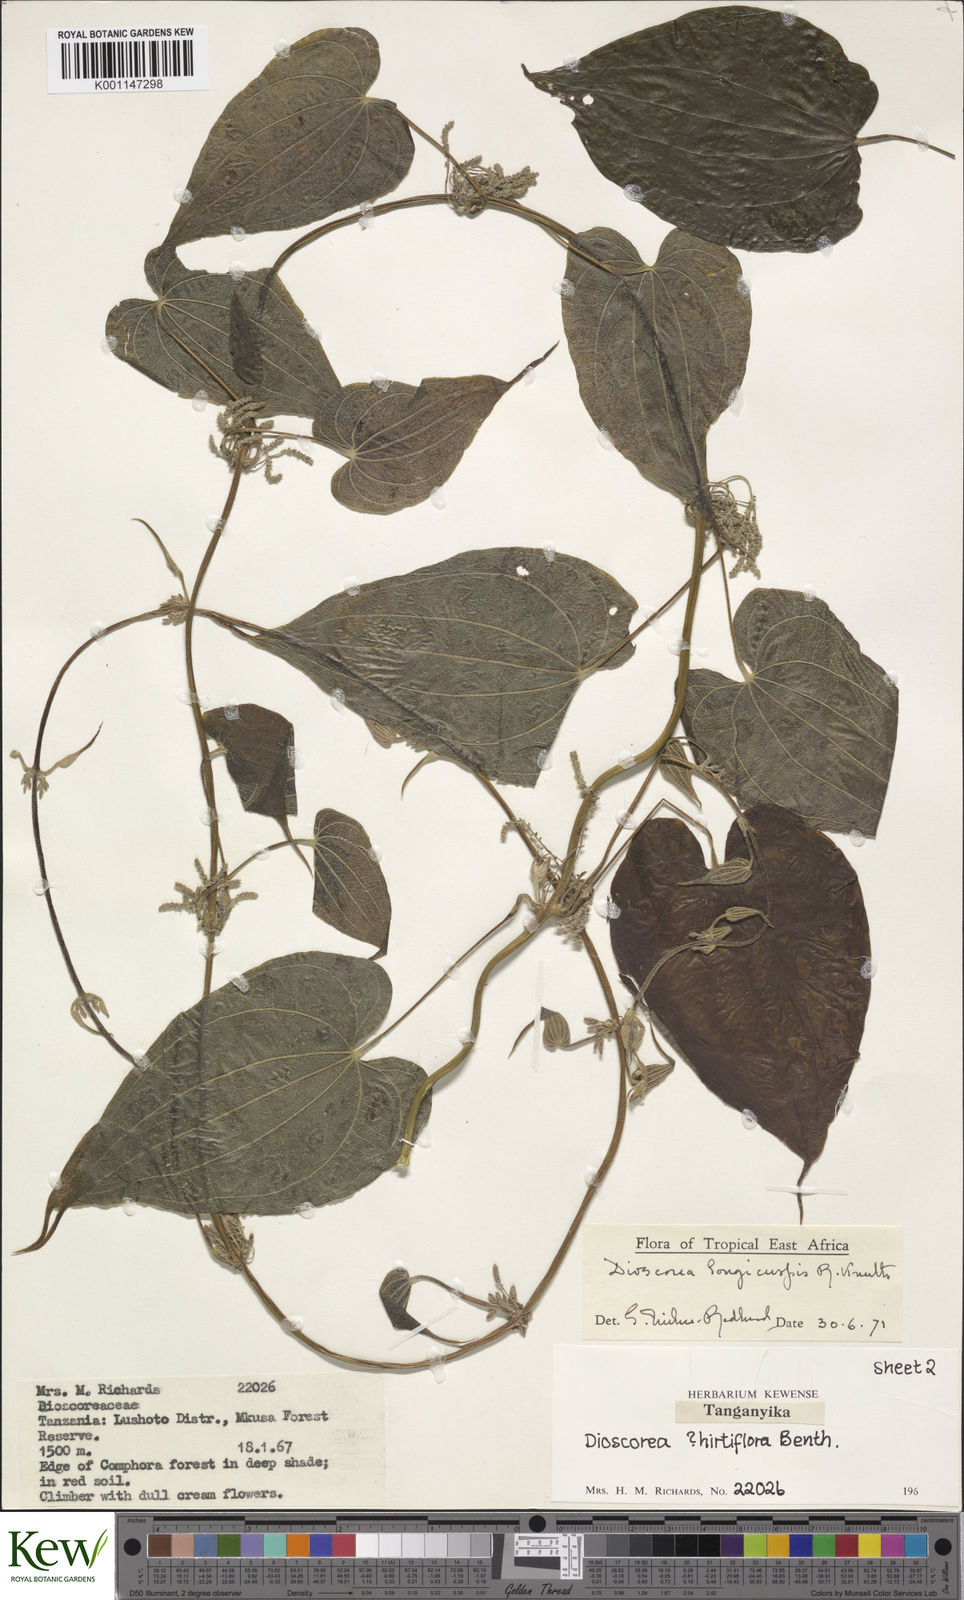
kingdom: Plantae
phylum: Tracheophyta
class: Liliopsida
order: Dioscoreales
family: Dioscoreaceae
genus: Dioscorea
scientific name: Dioscorea longicuspis
